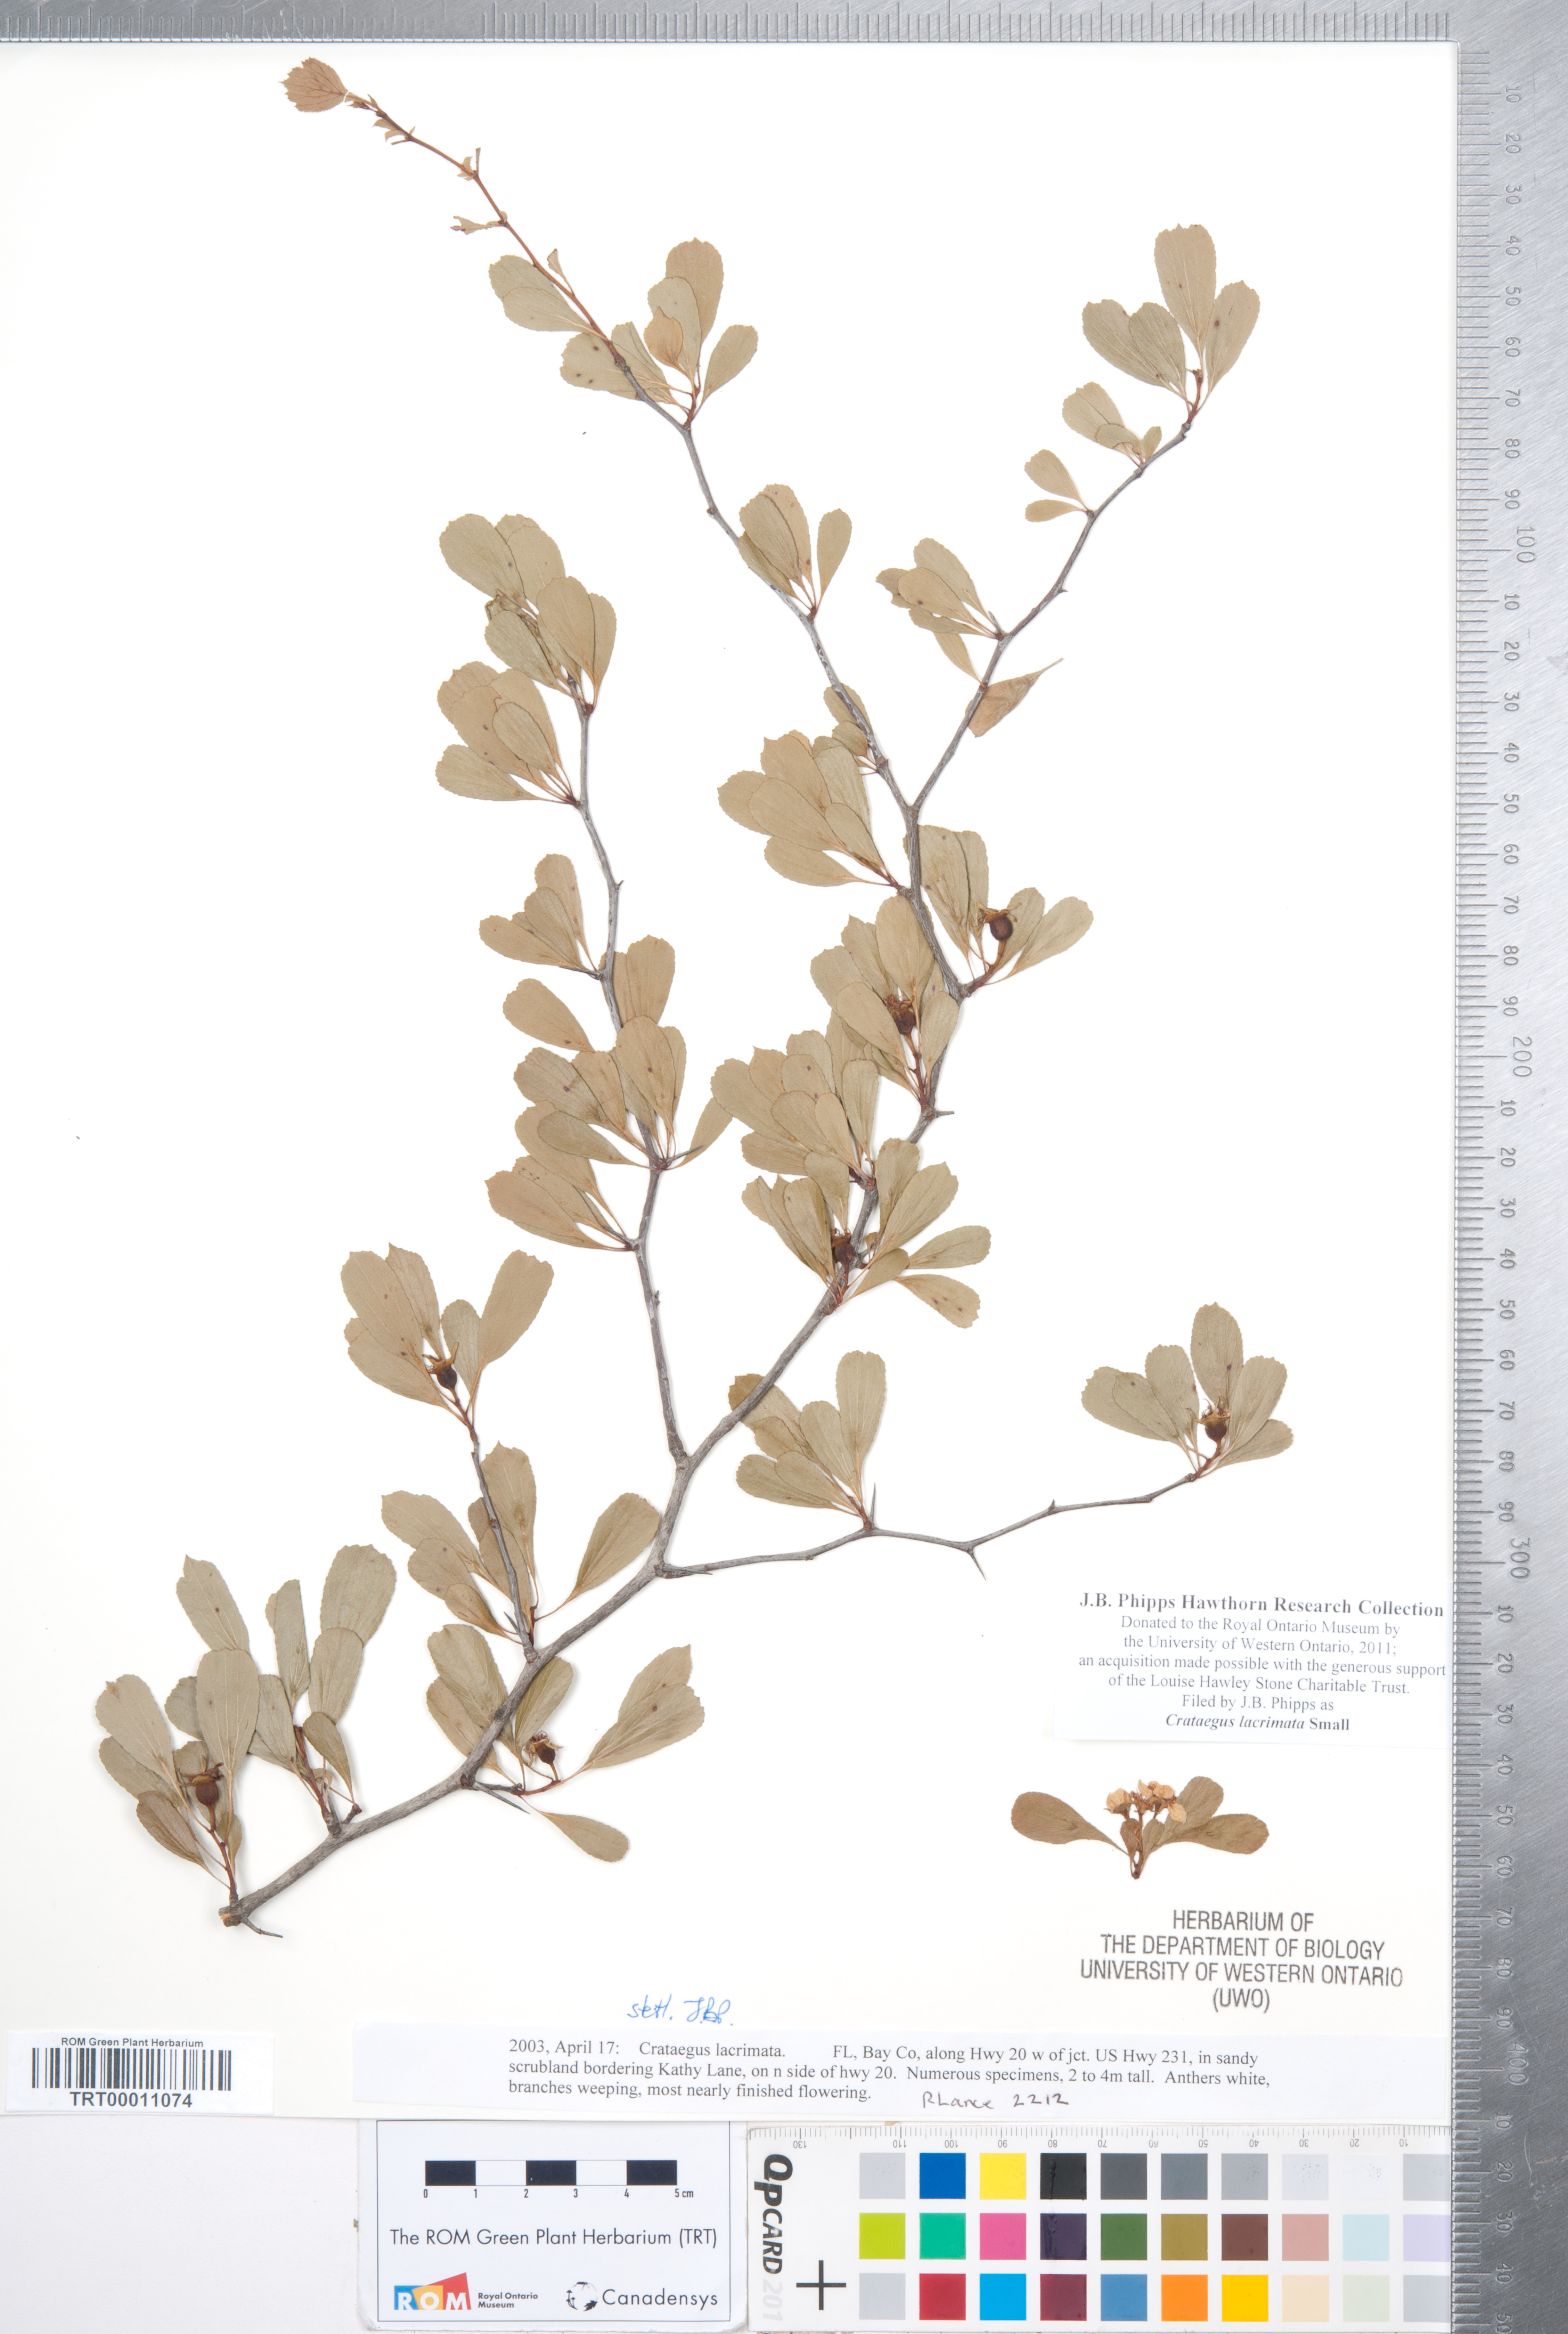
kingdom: Plantae
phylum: Tracheophyta
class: Magnoliopsida
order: Rosales
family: Rosaceae
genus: Crataegus
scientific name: Crataegus lacrimata
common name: Weeping hawthorn
